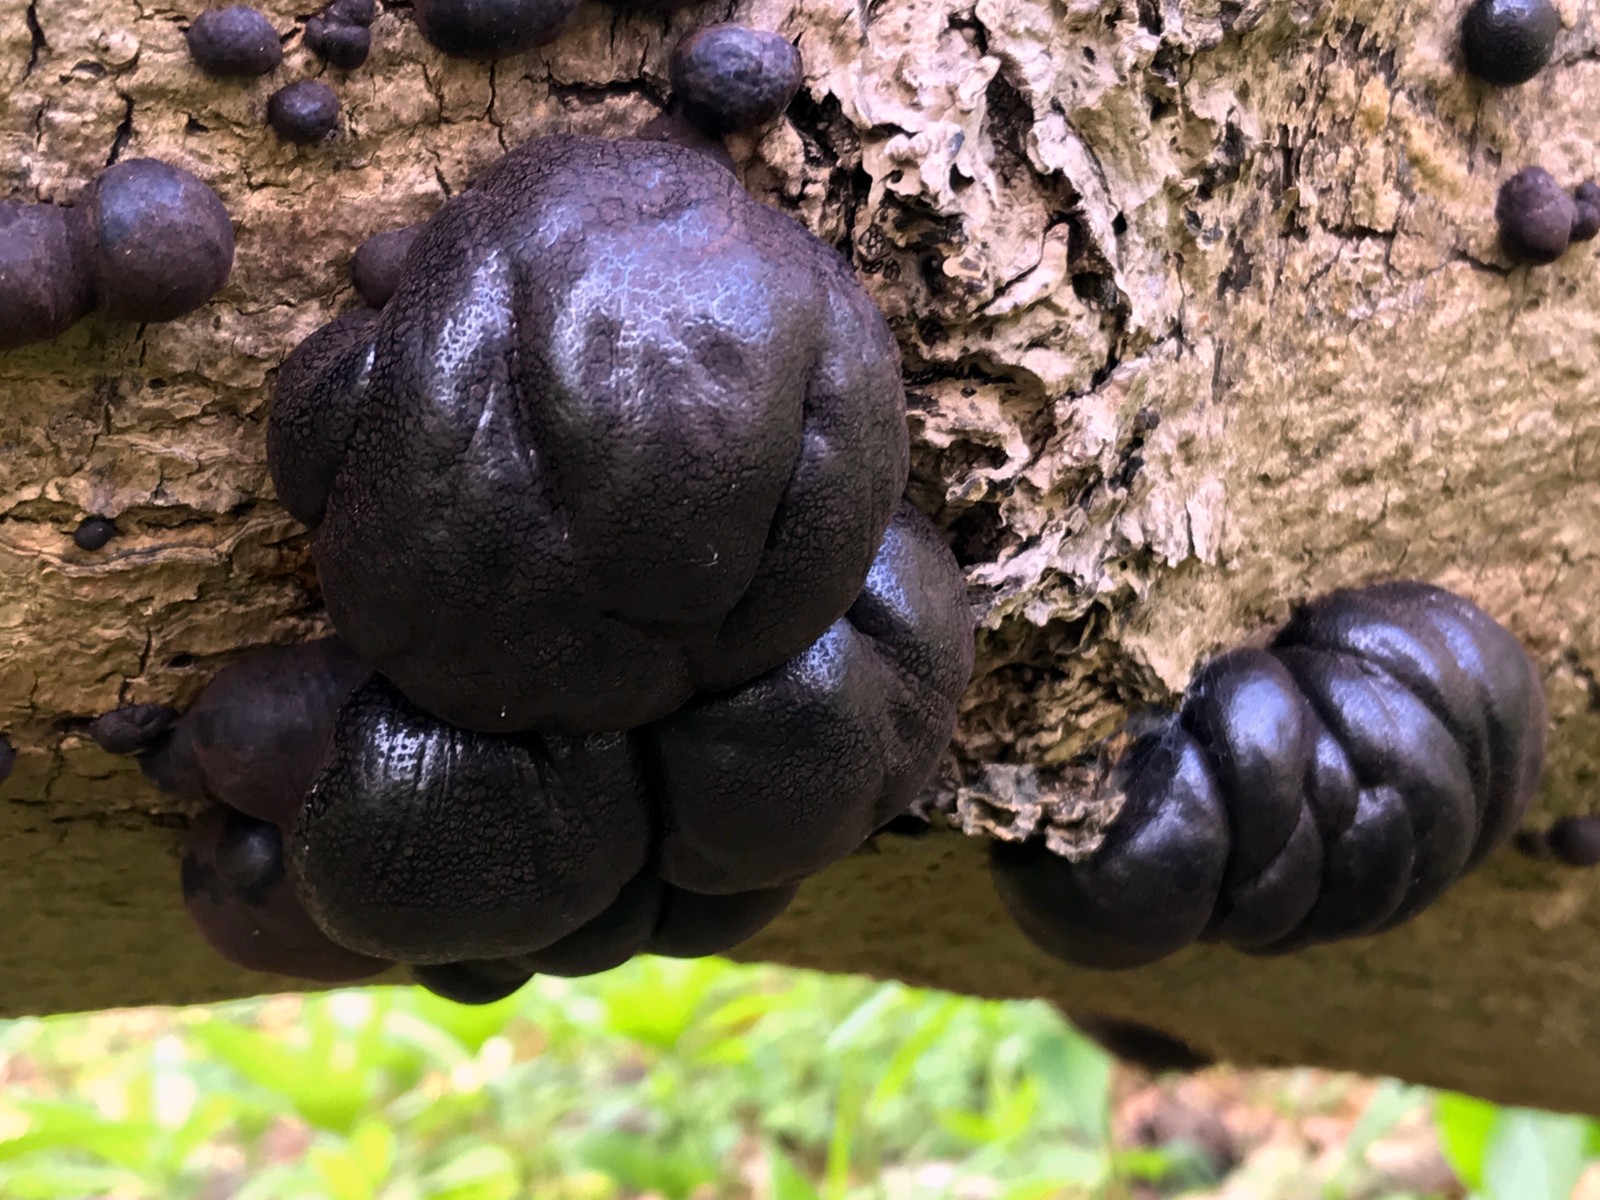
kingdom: Fungi
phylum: Ascomycota
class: Sordariomycetes
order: Xylariales
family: Hypoxylaceae
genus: Daldinia
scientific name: Daldinia concentrica
